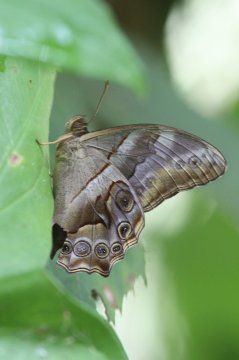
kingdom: Animalia
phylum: Arthropoda
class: Insecta
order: Lepidoptera
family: Nymphalidae
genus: Lethe
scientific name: Lethe chandica
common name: Angled Red Forester
